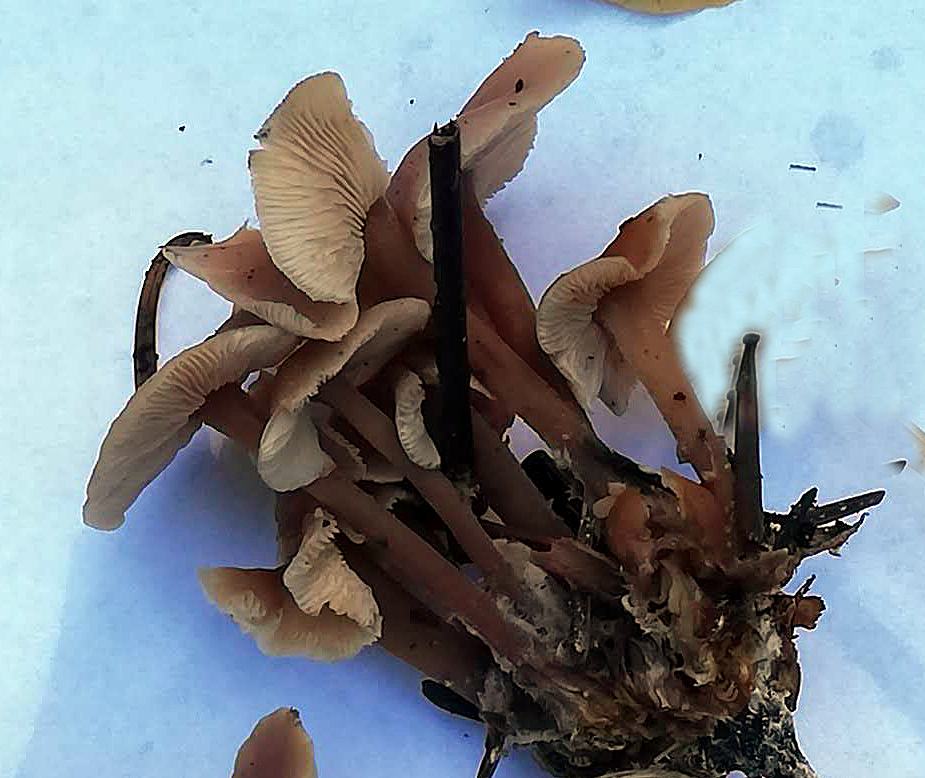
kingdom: Fungi
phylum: Basidiomycota
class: Agaricomycetes
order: Agaricales
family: Omphalotaceae
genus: Collybiopsis
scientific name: Collybiopsis confluens
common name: knippe-fladhat
